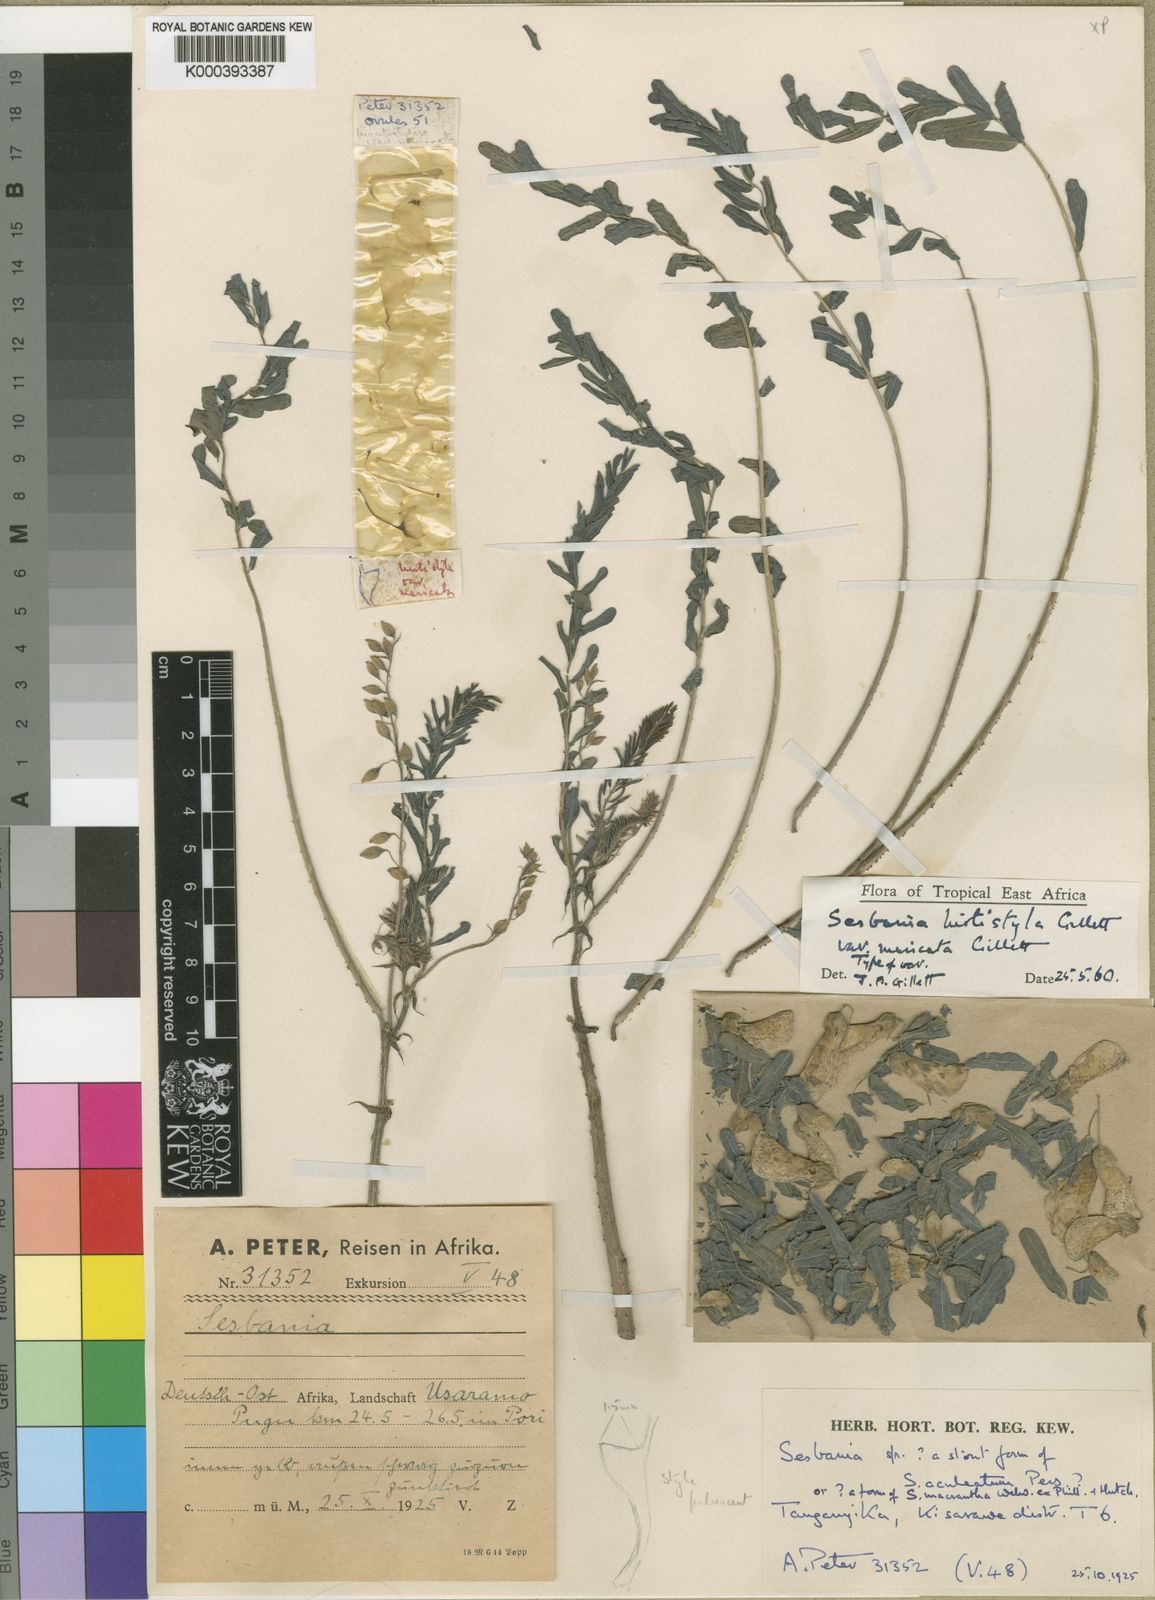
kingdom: Plantae
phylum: Tracheophyta
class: Magnoliopsida
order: Fabales
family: Fabaceae
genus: Sesbania
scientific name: Sesbania hirtistyla
